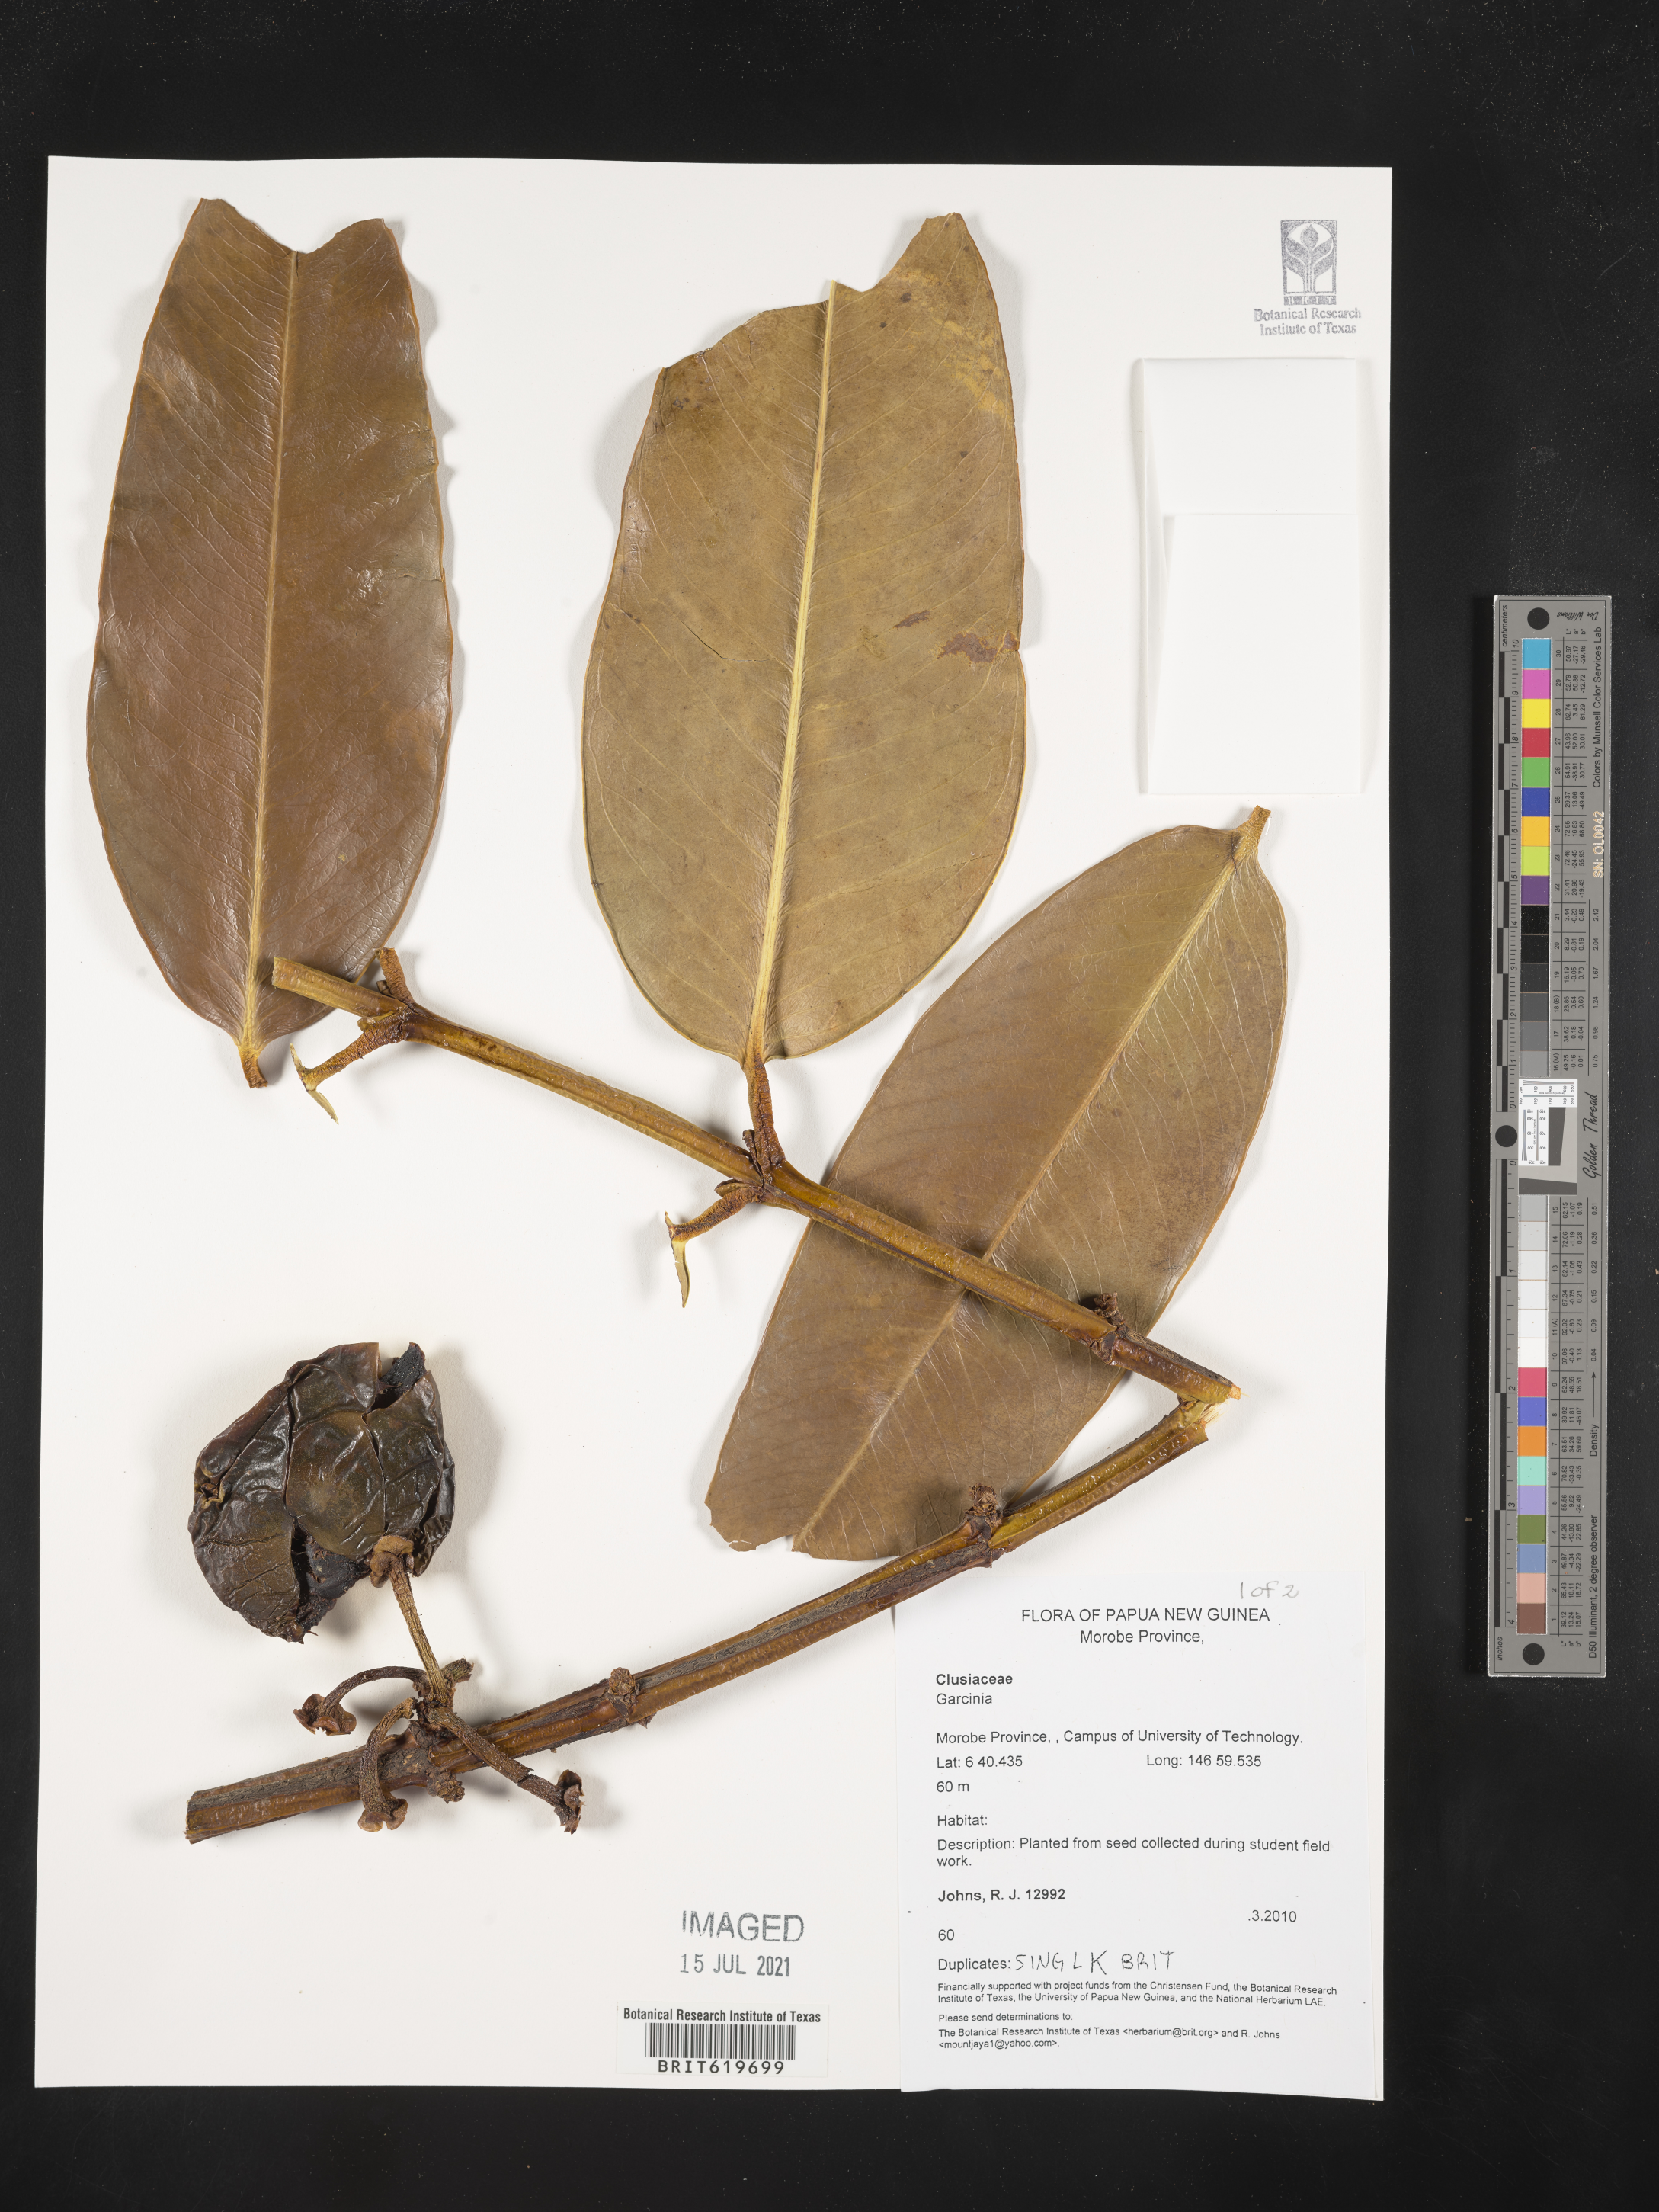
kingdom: Plantae
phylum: Tracheophyta
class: Magnoliopsida
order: Malpighiales
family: Clusiaceae
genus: Garcinia
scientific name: Garcinia
